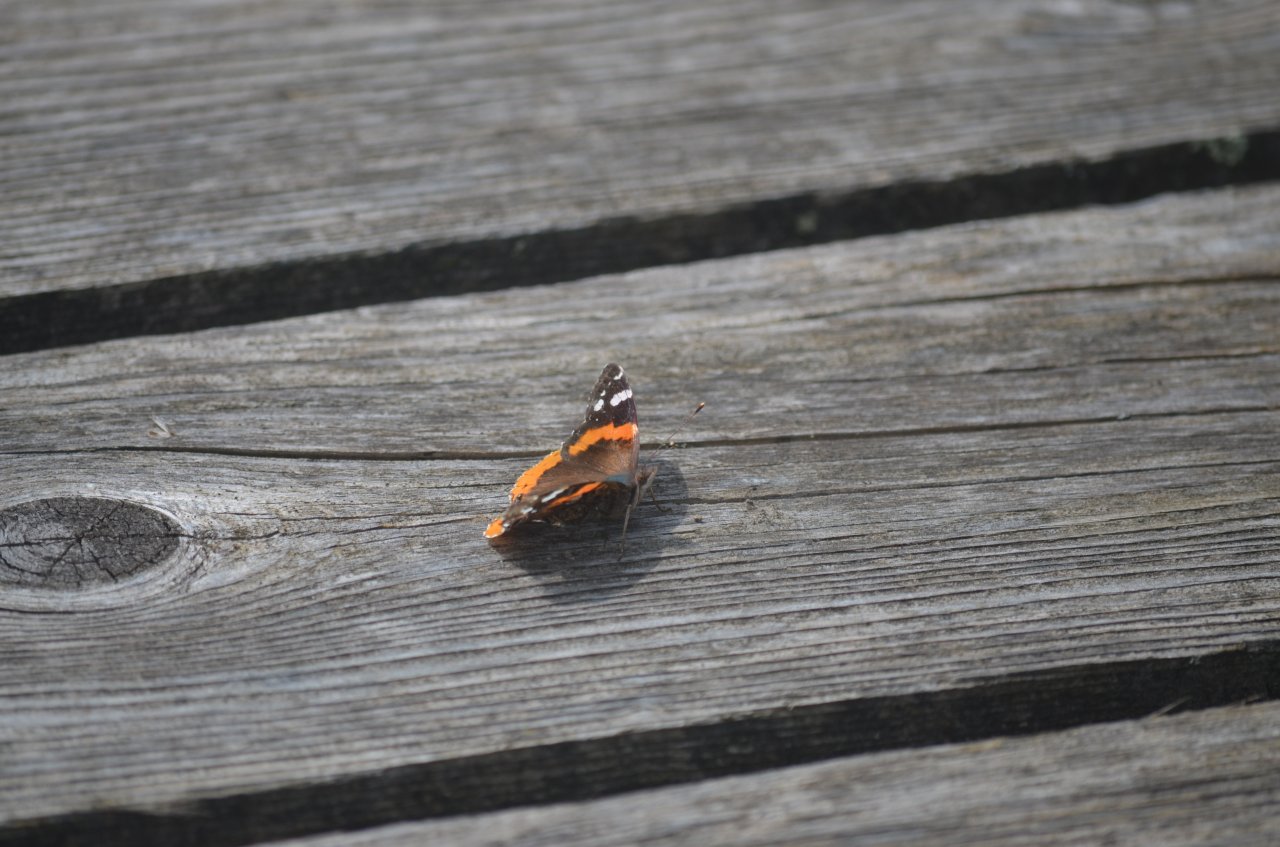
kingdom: Animalia
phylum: Arthropoda
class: Insecta
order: Lepidoptera
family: Nymphalidae
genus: Vanessa
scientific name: Vanessa atalanta
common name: Red Admiral
